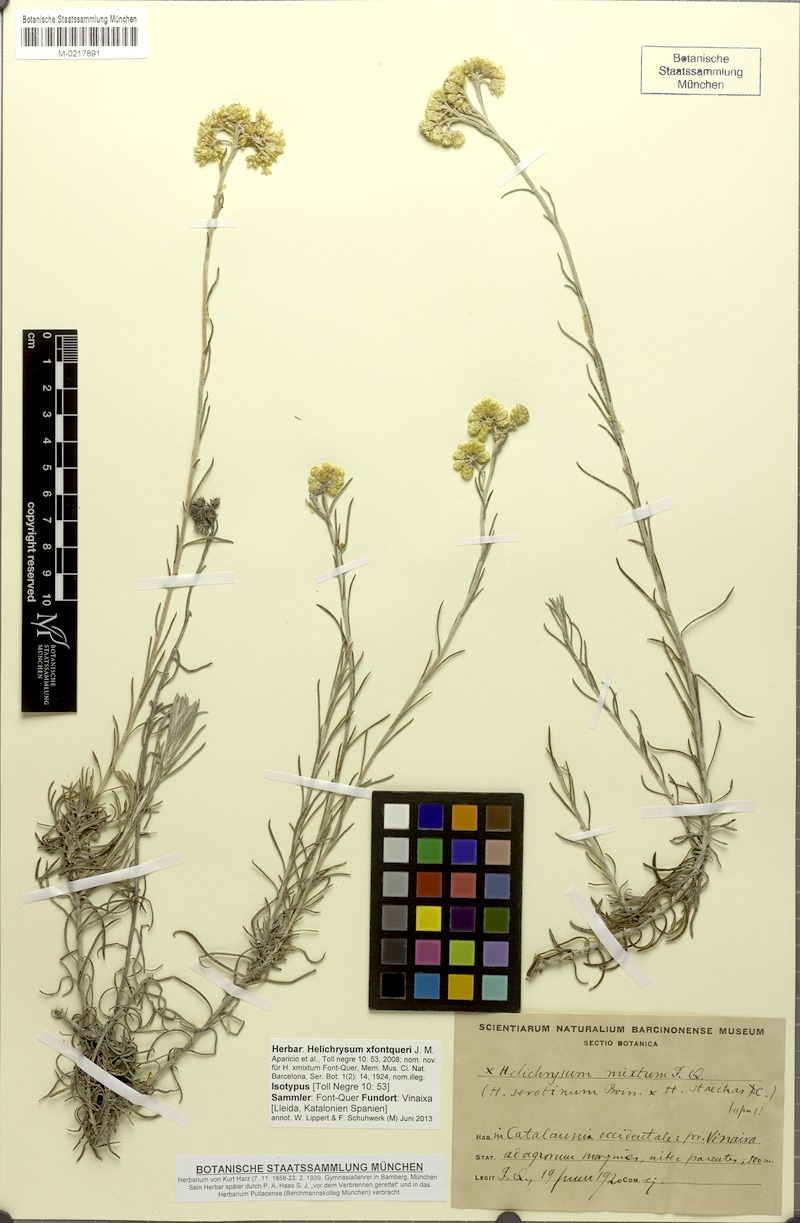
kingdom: Plantae
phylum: Tracheophyta
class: Magnoliopsida
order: Asterales
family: Asteraceae
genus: Helichrysum
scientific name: Helichrysum fontqueri
